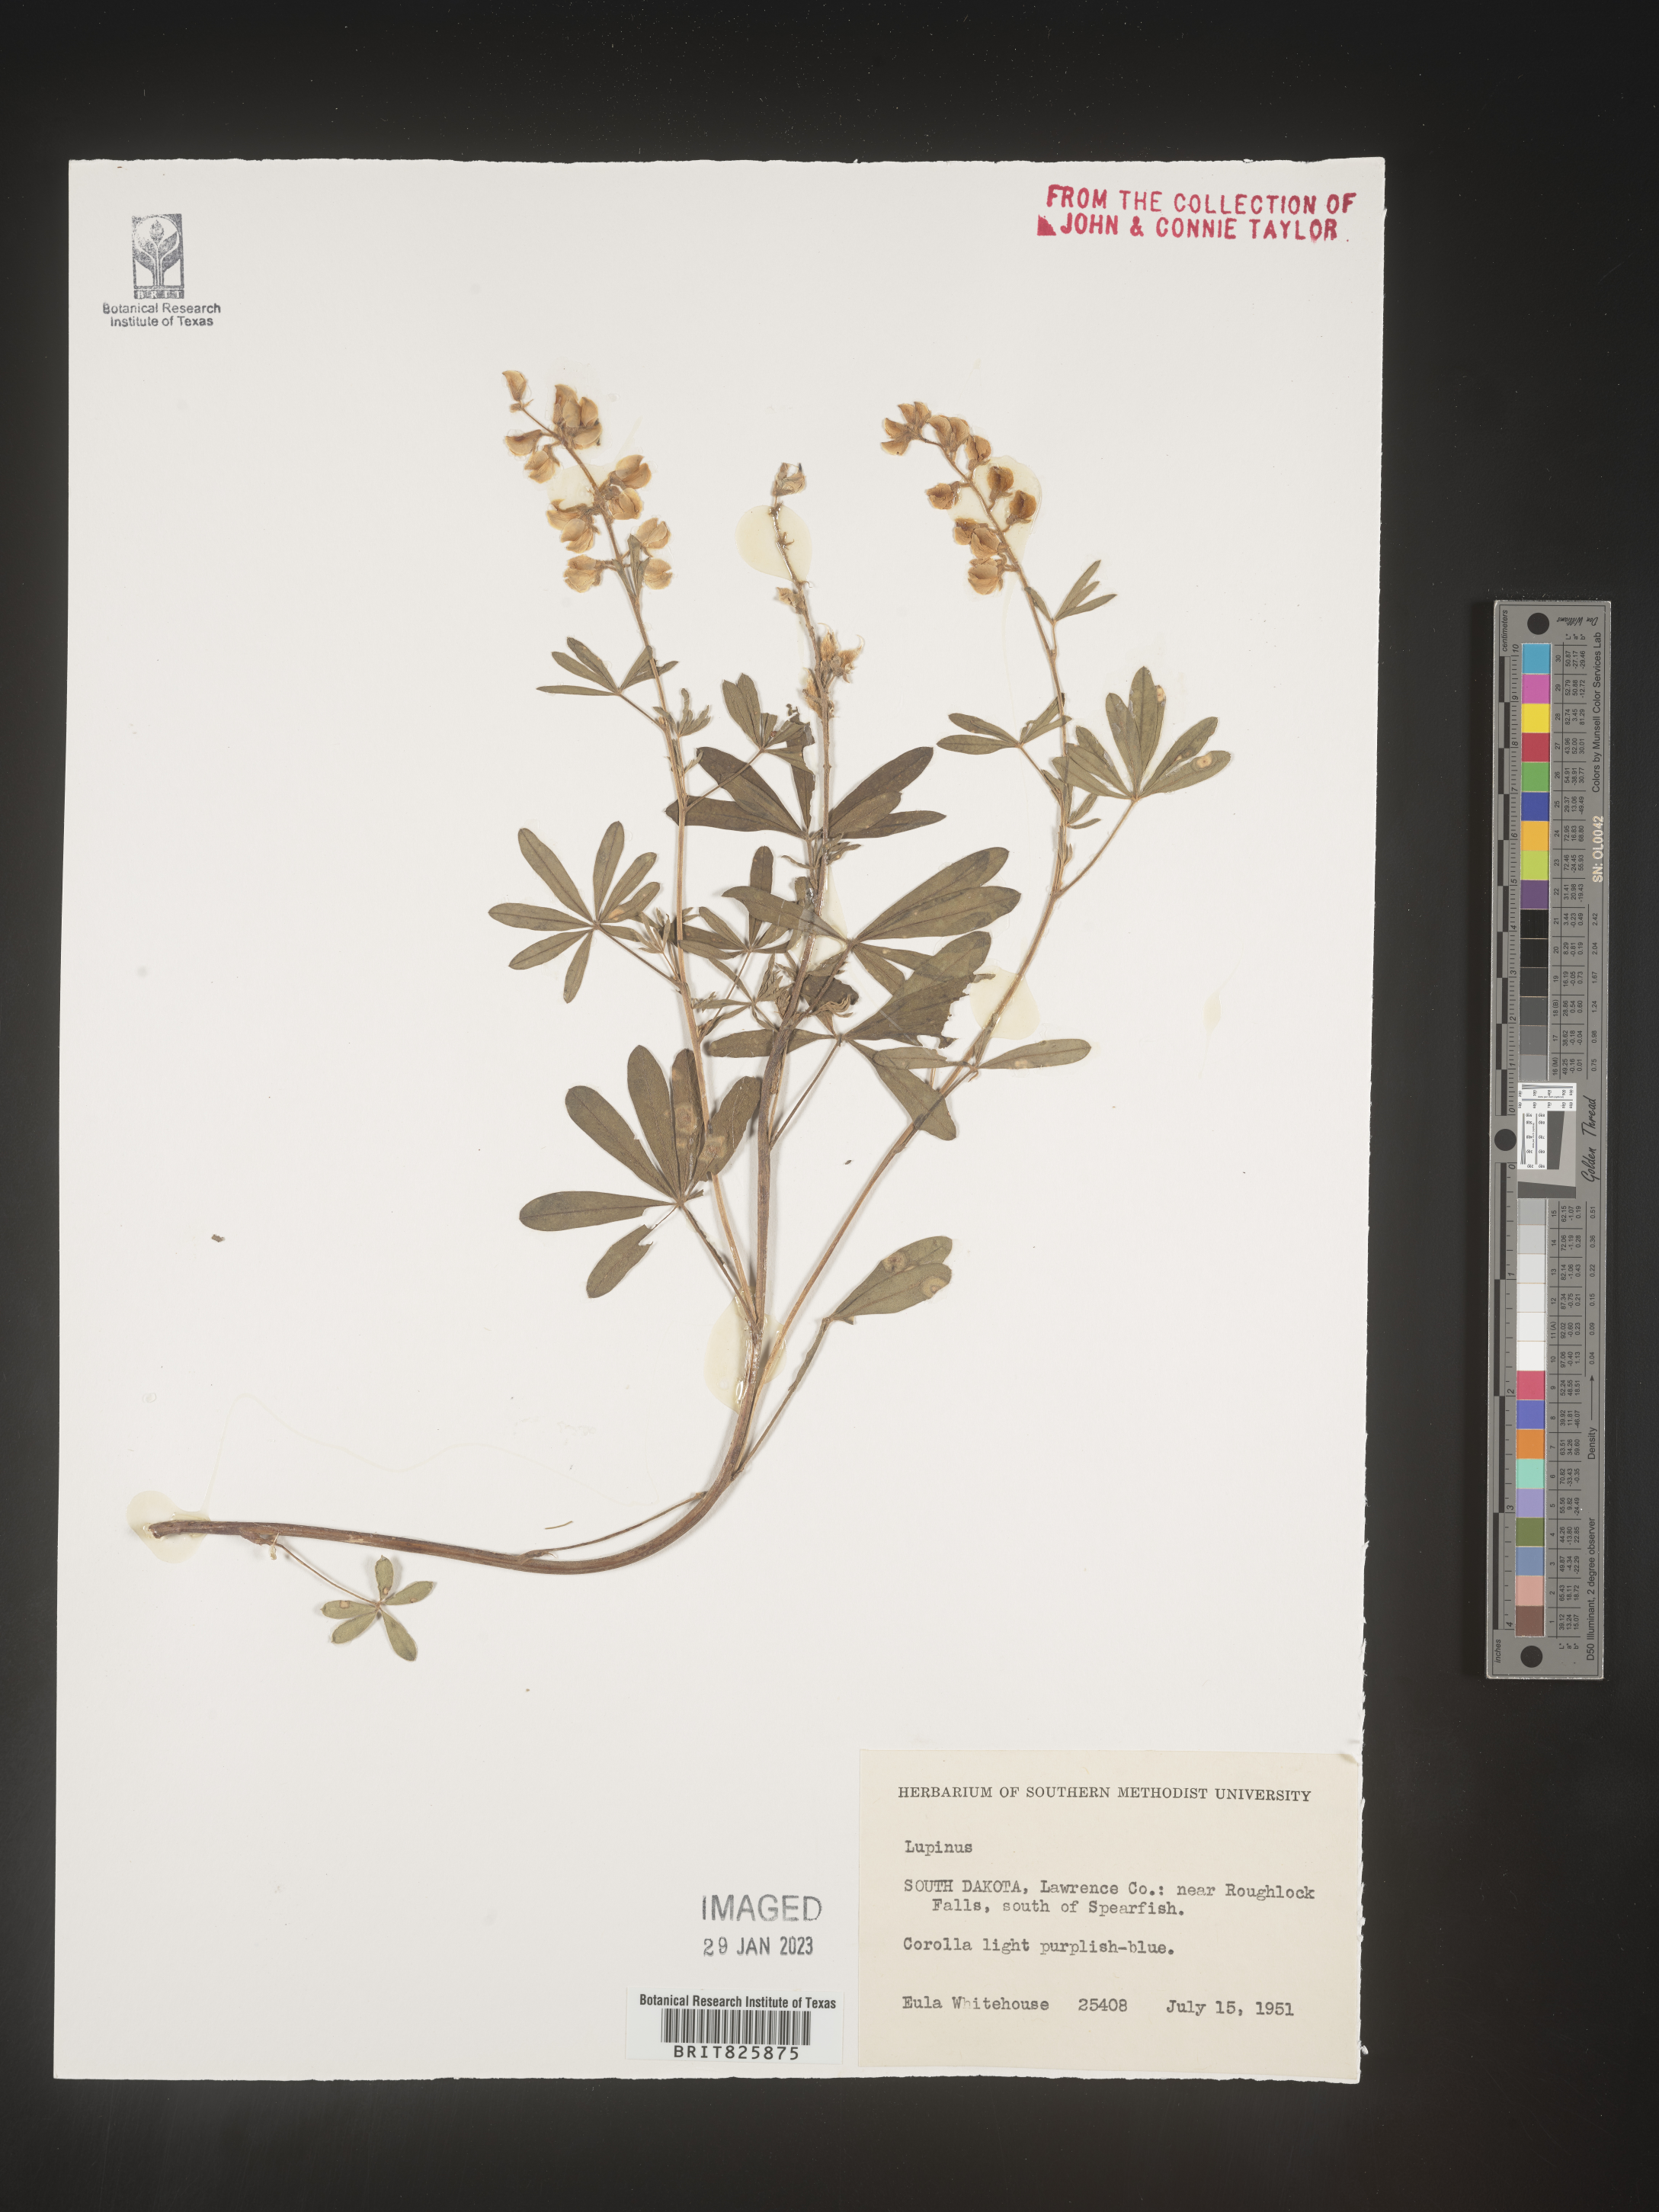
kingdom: Plantae
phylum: Tracheophyta
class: Magnoliopsida
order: Fabales
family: Fabaceae
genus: Lupinus
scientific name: Lupinus
